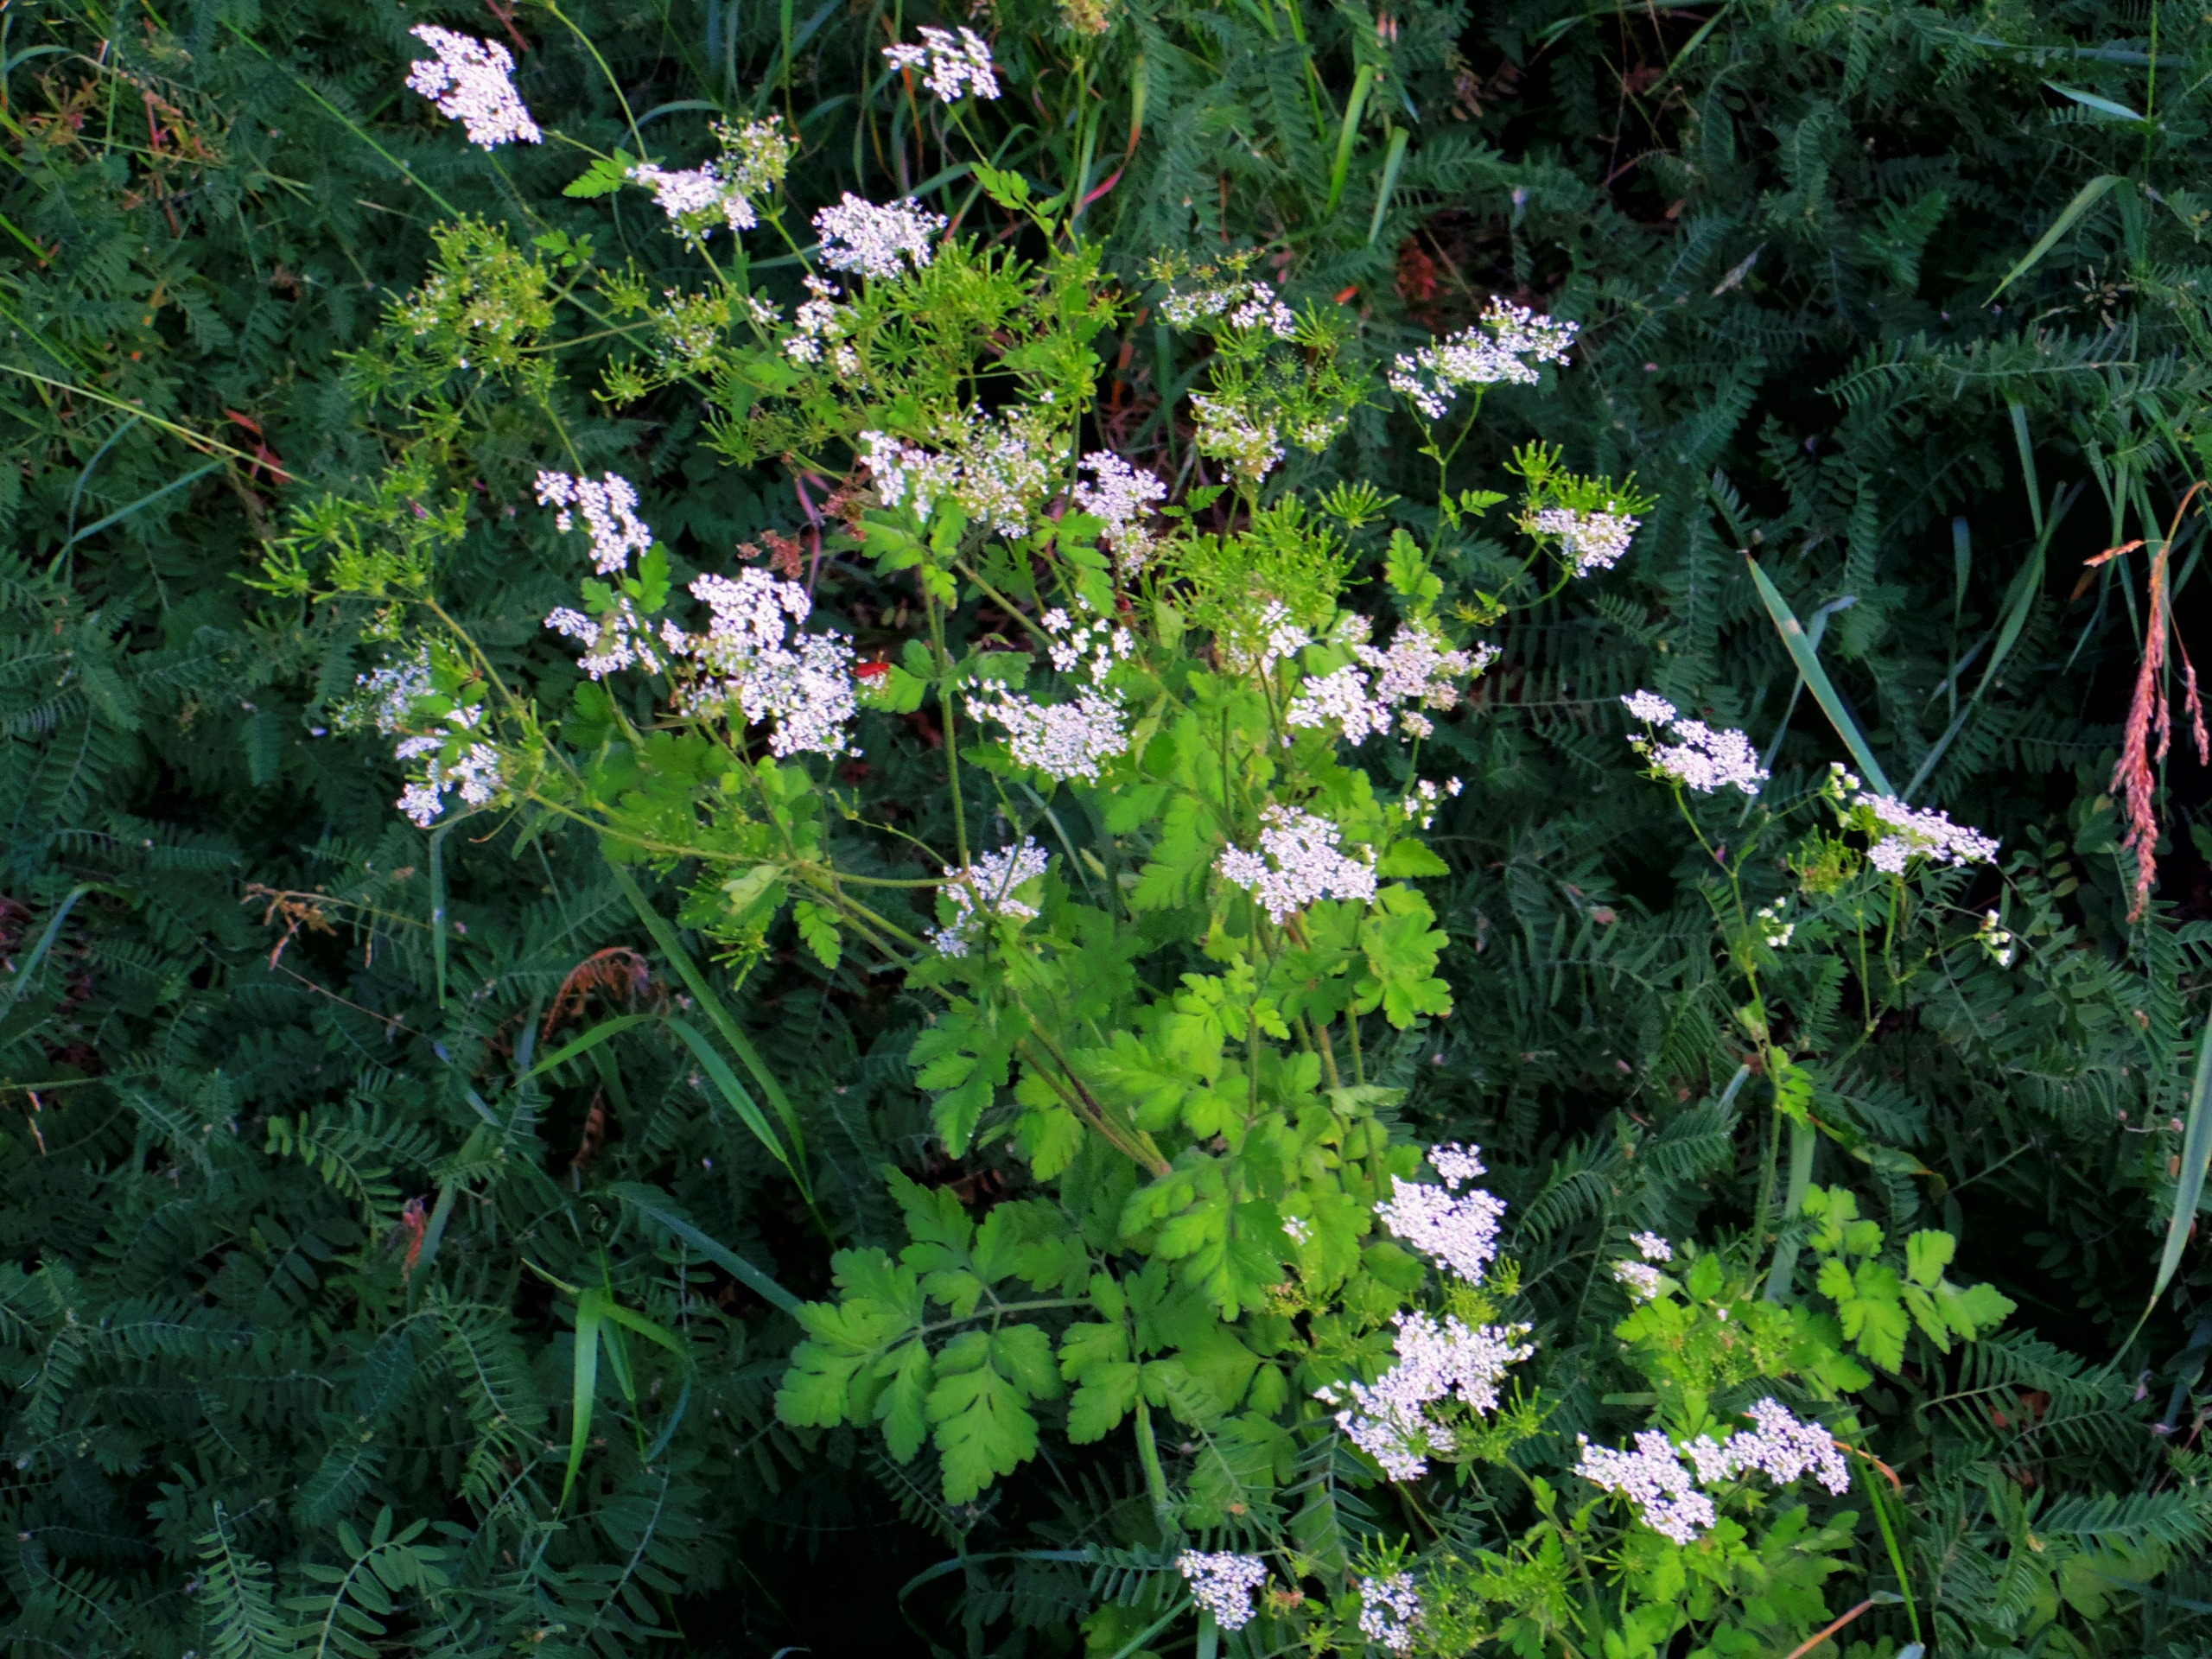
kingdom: Plantae
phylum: Tracheophyta
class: Magnoliopsida
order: Apiales
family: Apiaceae
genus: Chaerophyllum
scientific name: Chaerophyllum temulum
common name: Almindelig hulsvøb
